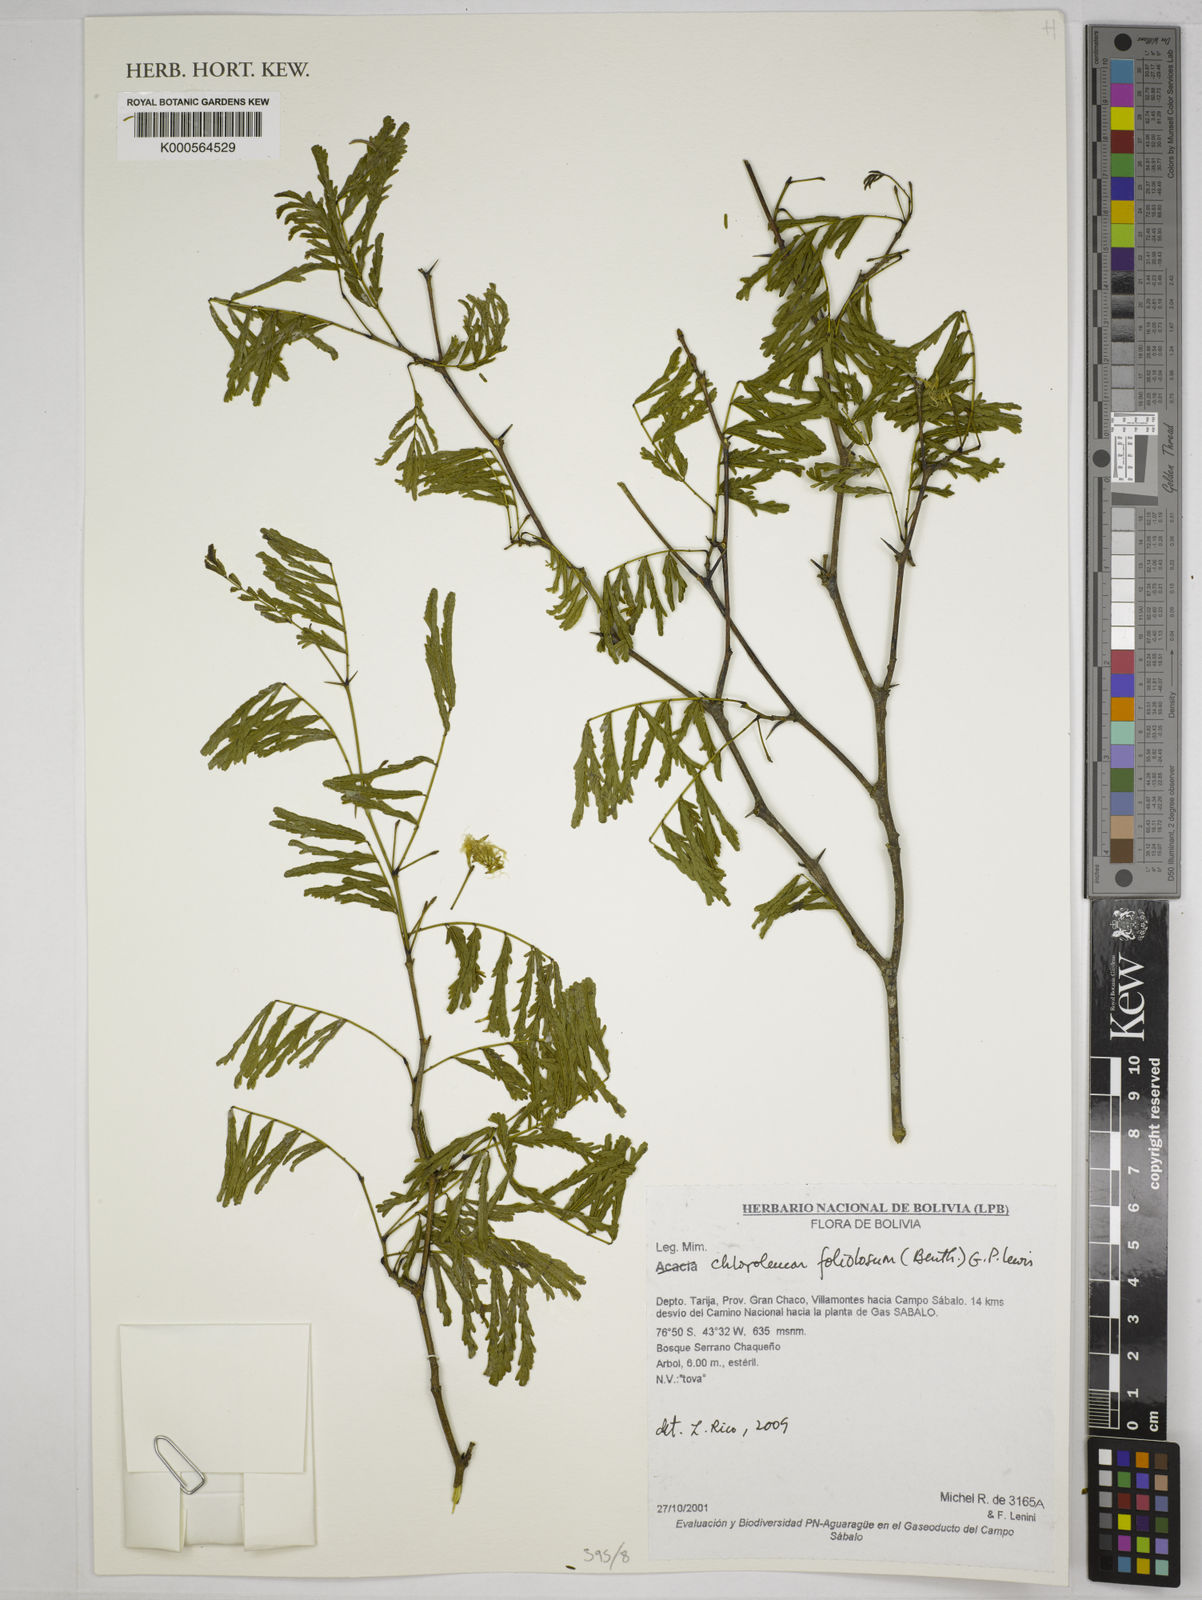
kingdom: Plantae
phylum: Tracheophyta
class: Magnoliopsida
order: Fabales
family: Fabaceae
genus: Calliandra
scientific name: Calliandra trinervia
